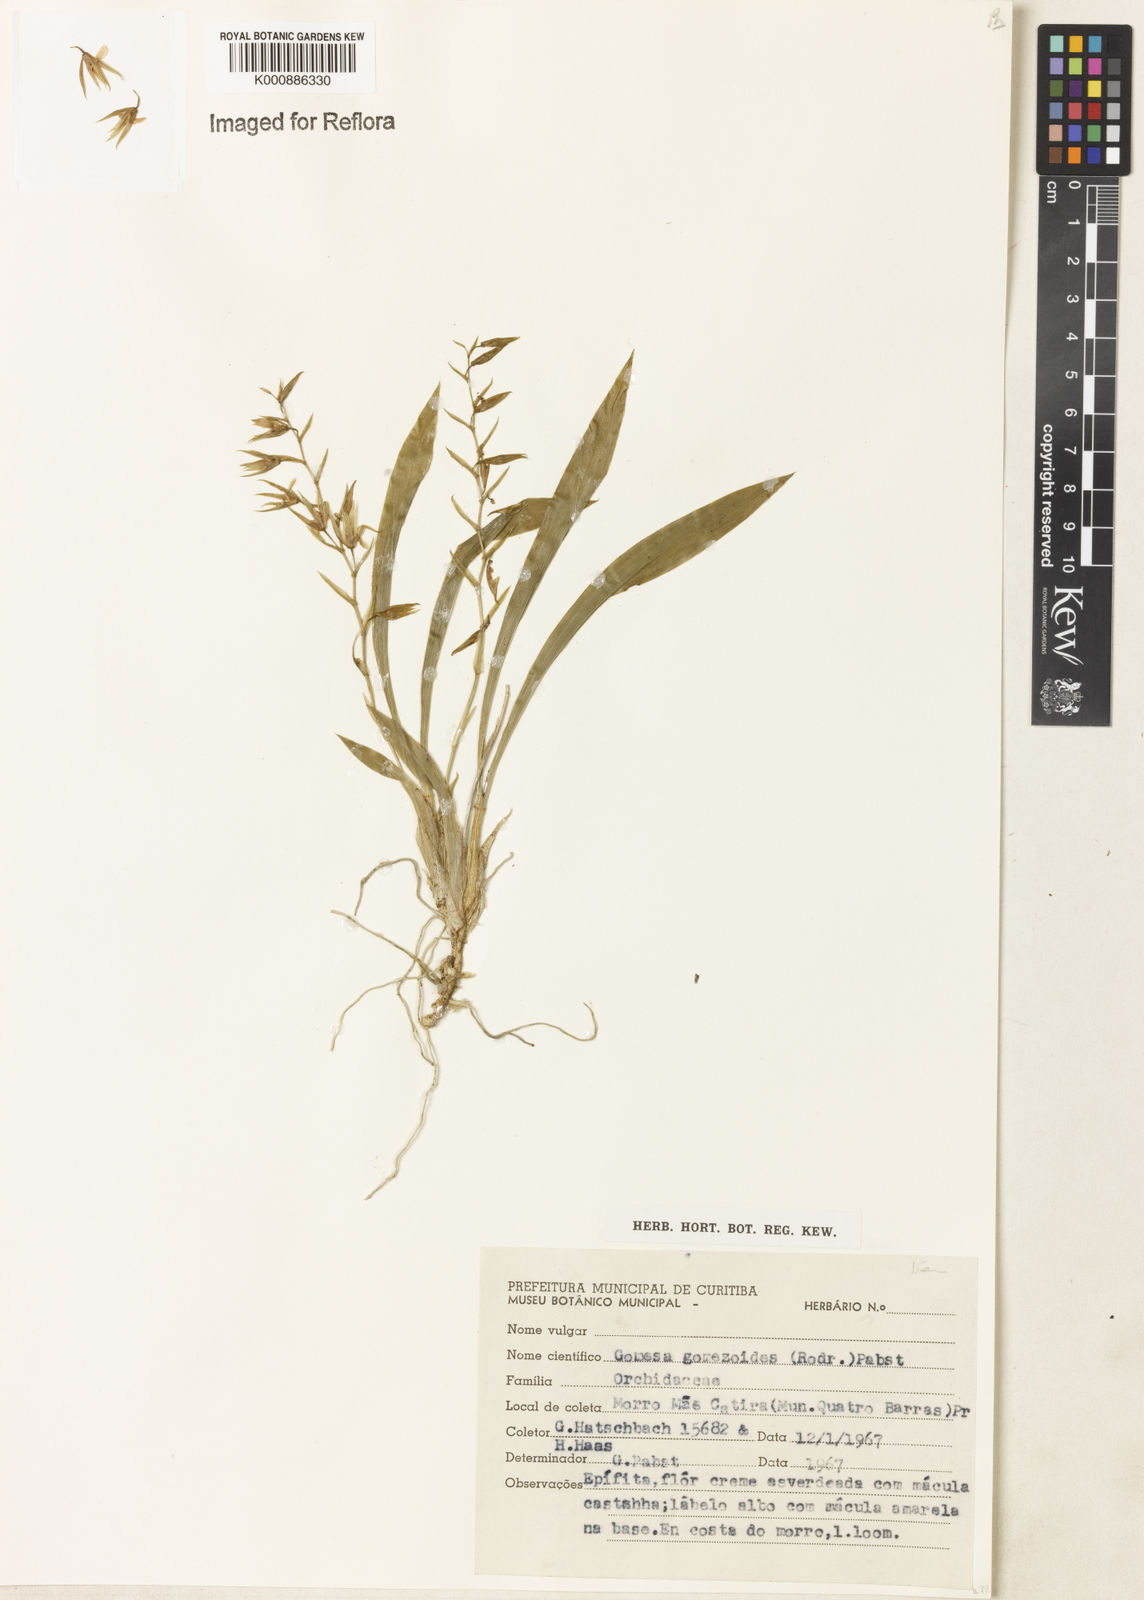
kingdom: Plantae
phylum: Tracheophyta
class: Liliopsida
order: Asparagales
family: Orchidaceae
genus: Gomesa
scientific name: Gomesa gomezoides
